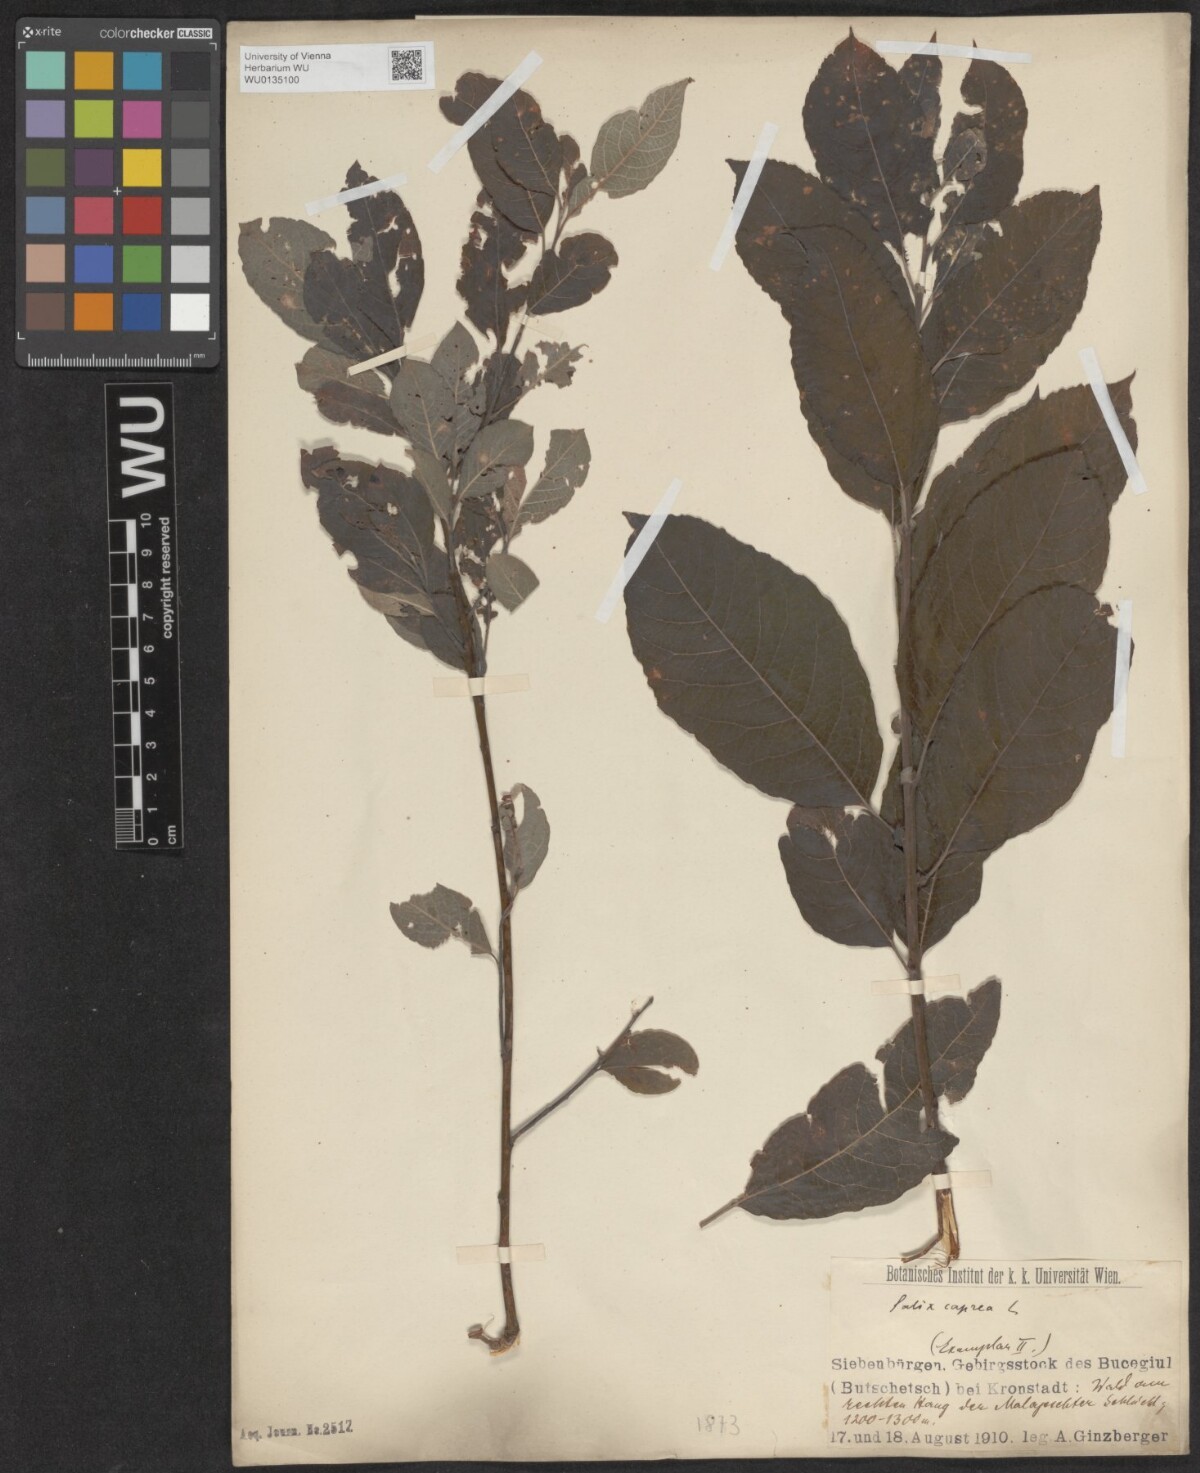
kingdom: Plantae
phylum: Tracheophyta
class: Magnoliopsida
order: Malpighiales
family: Salicaceae
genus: Salix
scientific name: Salix caprea
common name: Goat willow
